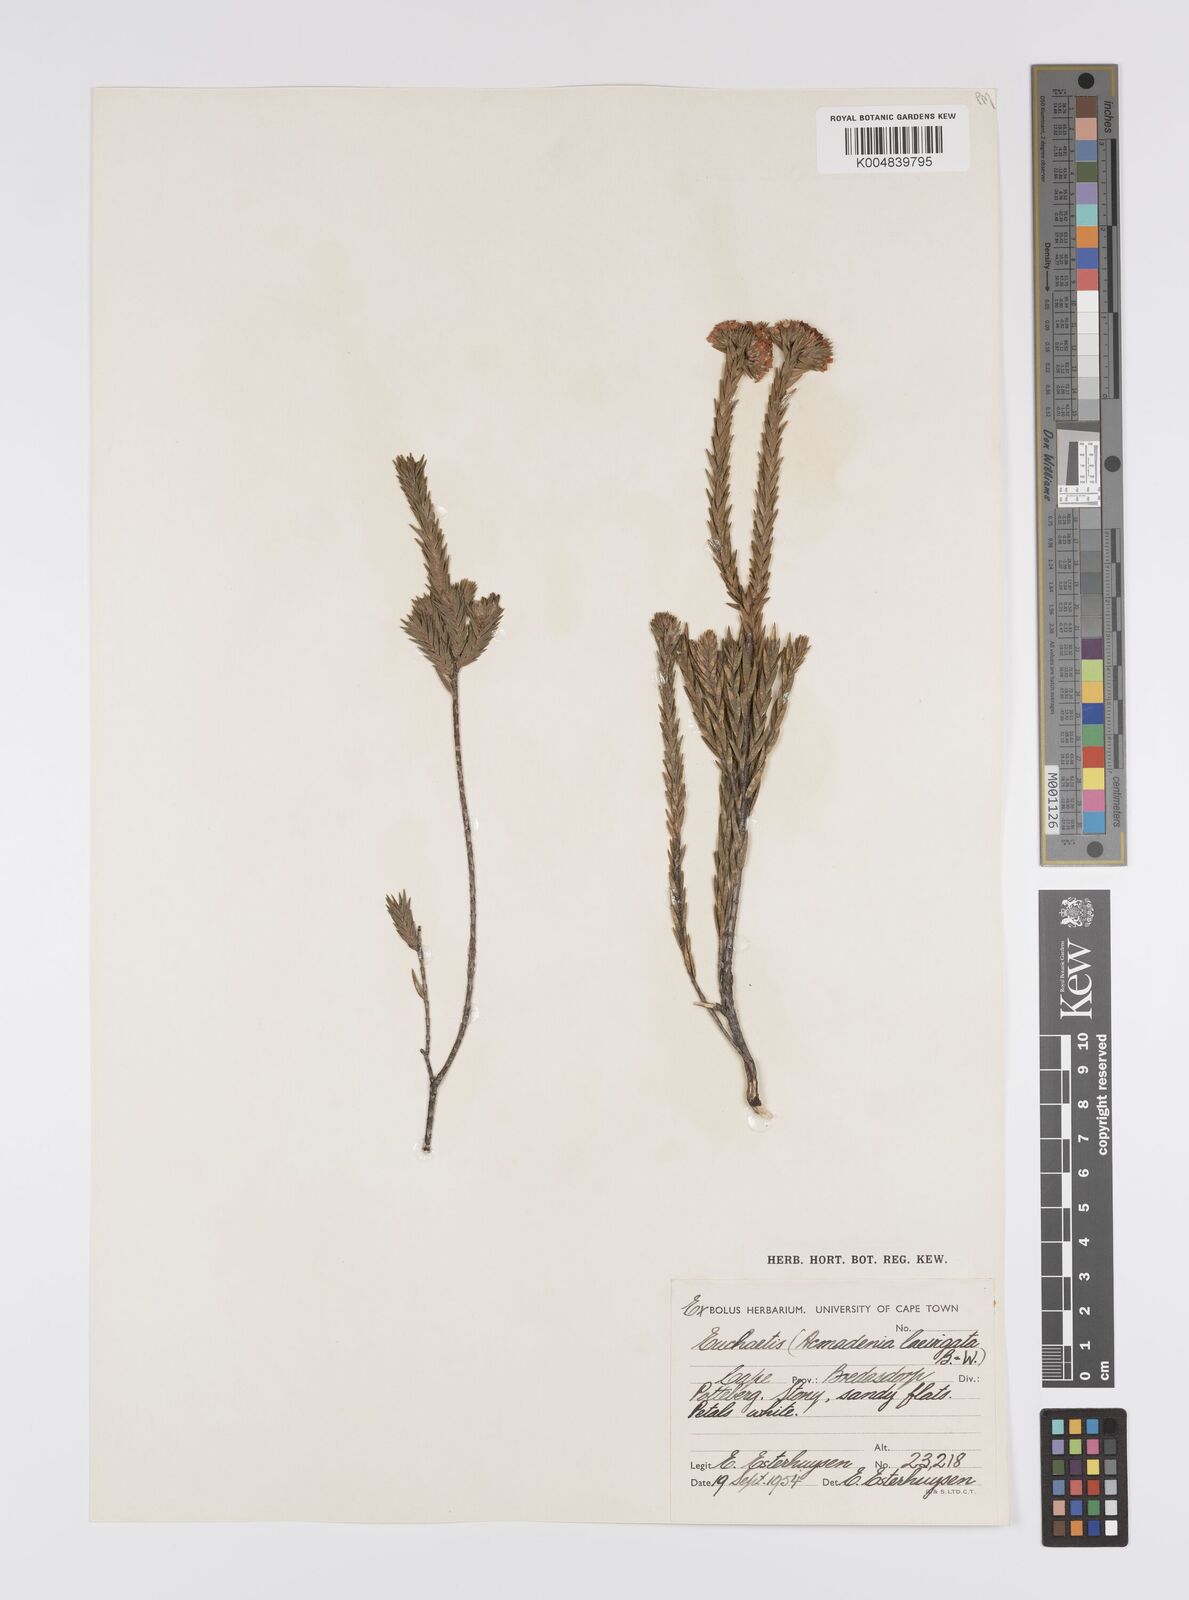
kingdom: Plantae
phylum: Tracheophyta
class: Magnoliopsida
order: Sapindales
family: Rutaceae
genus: Euchaetis
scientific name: Euchaetis
